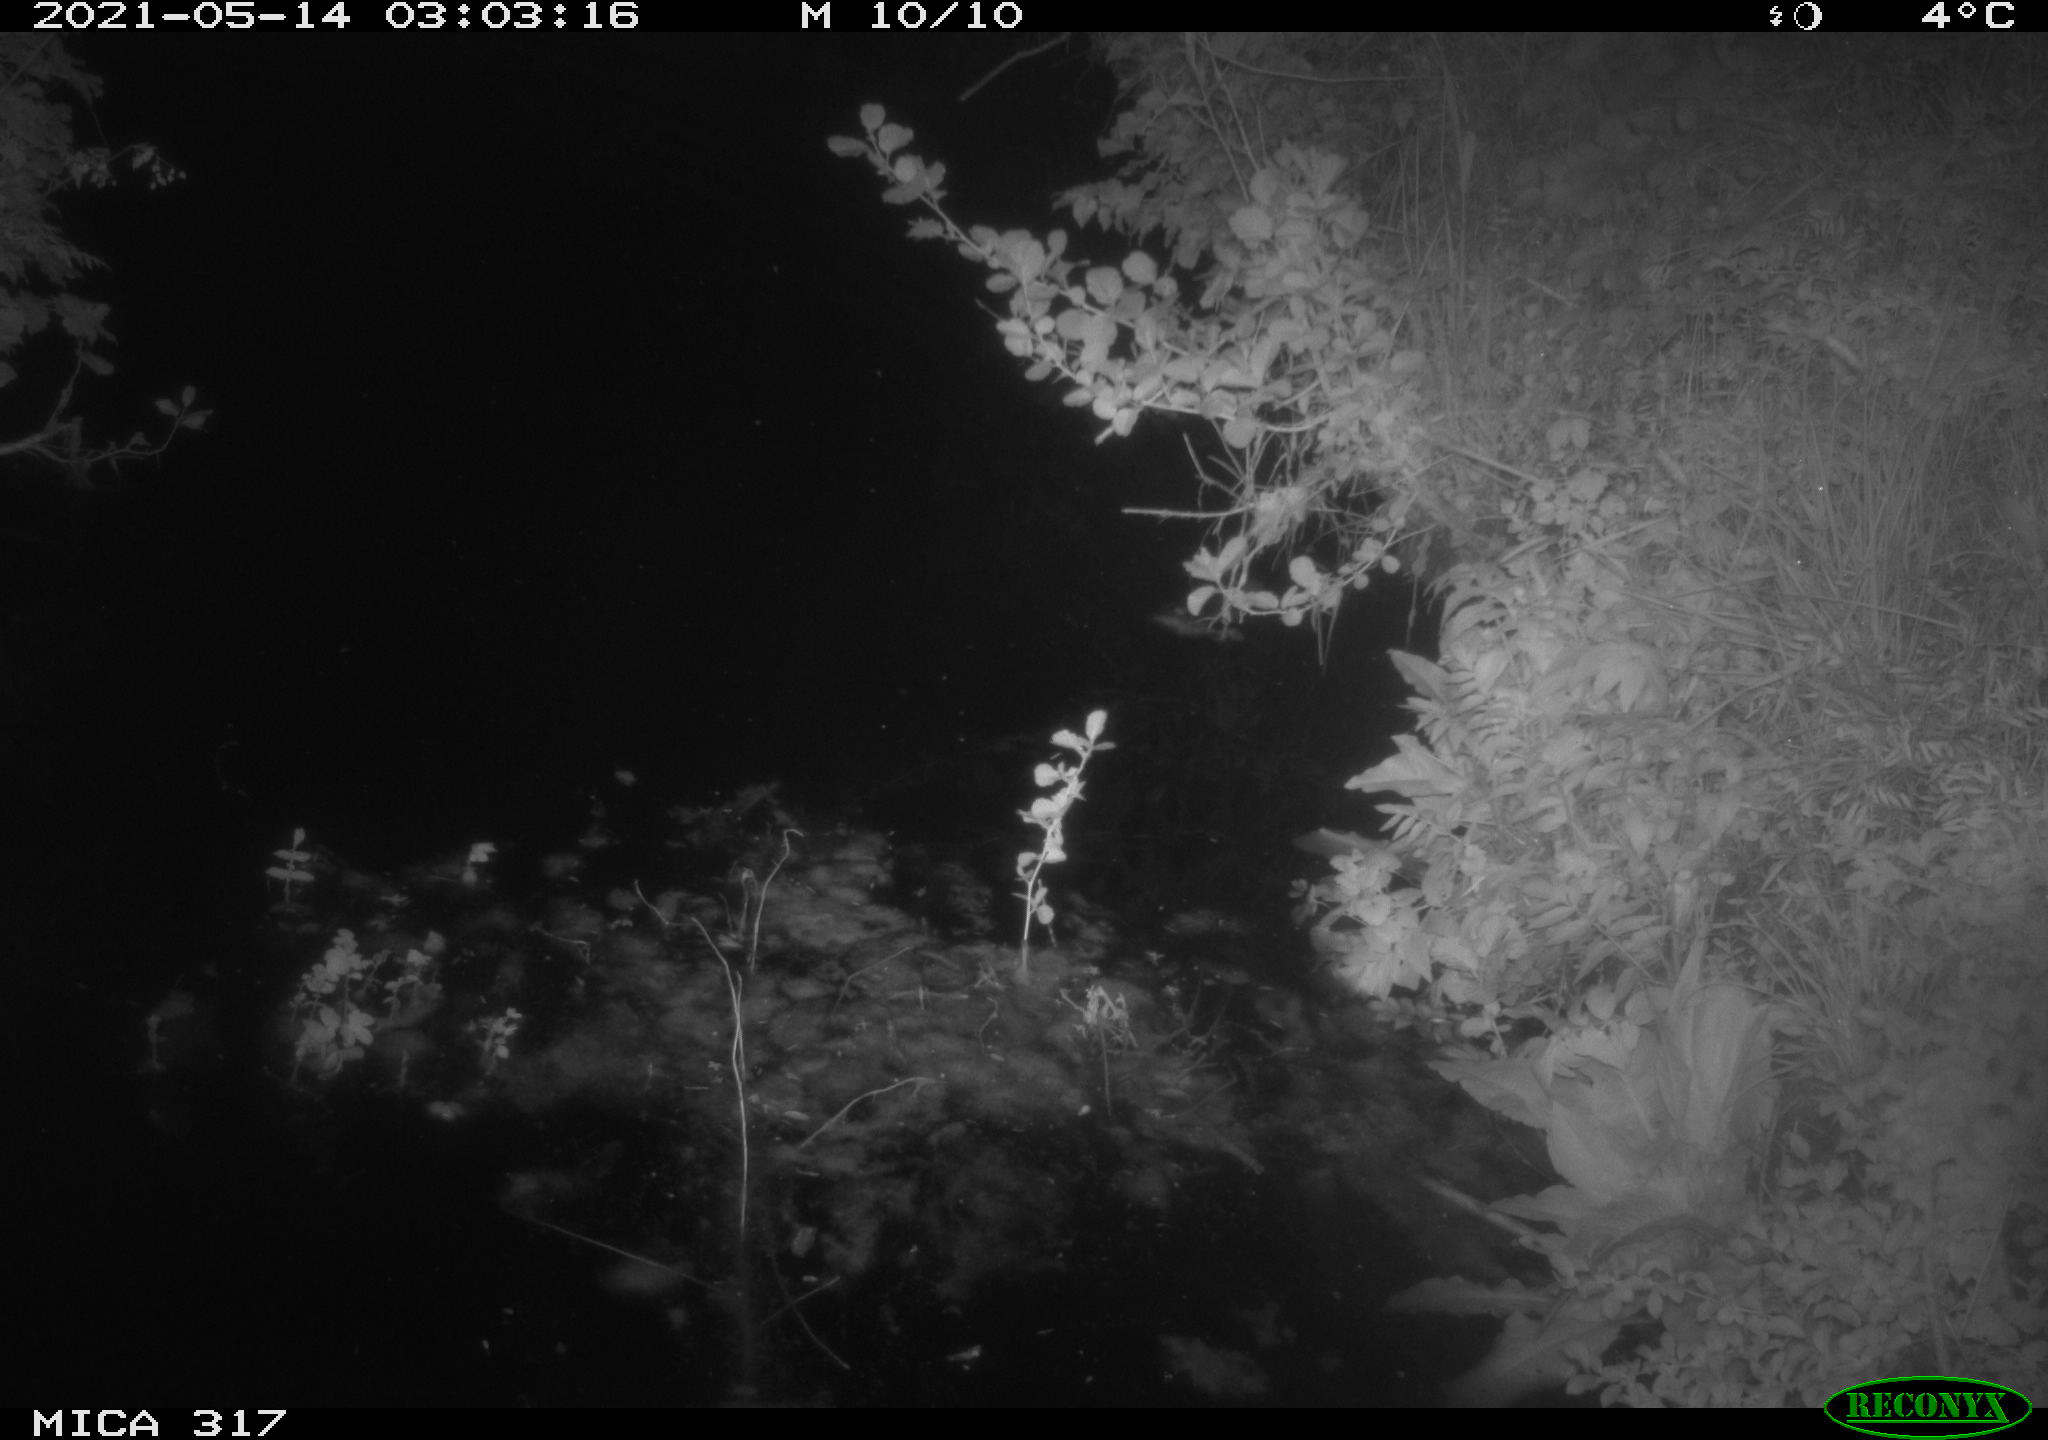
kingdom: Animalia
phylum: Chordata
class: Aves
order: Gruiformes
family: Rallidae
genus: Fulica
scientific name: Fulica atra
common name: Eurasian coot
